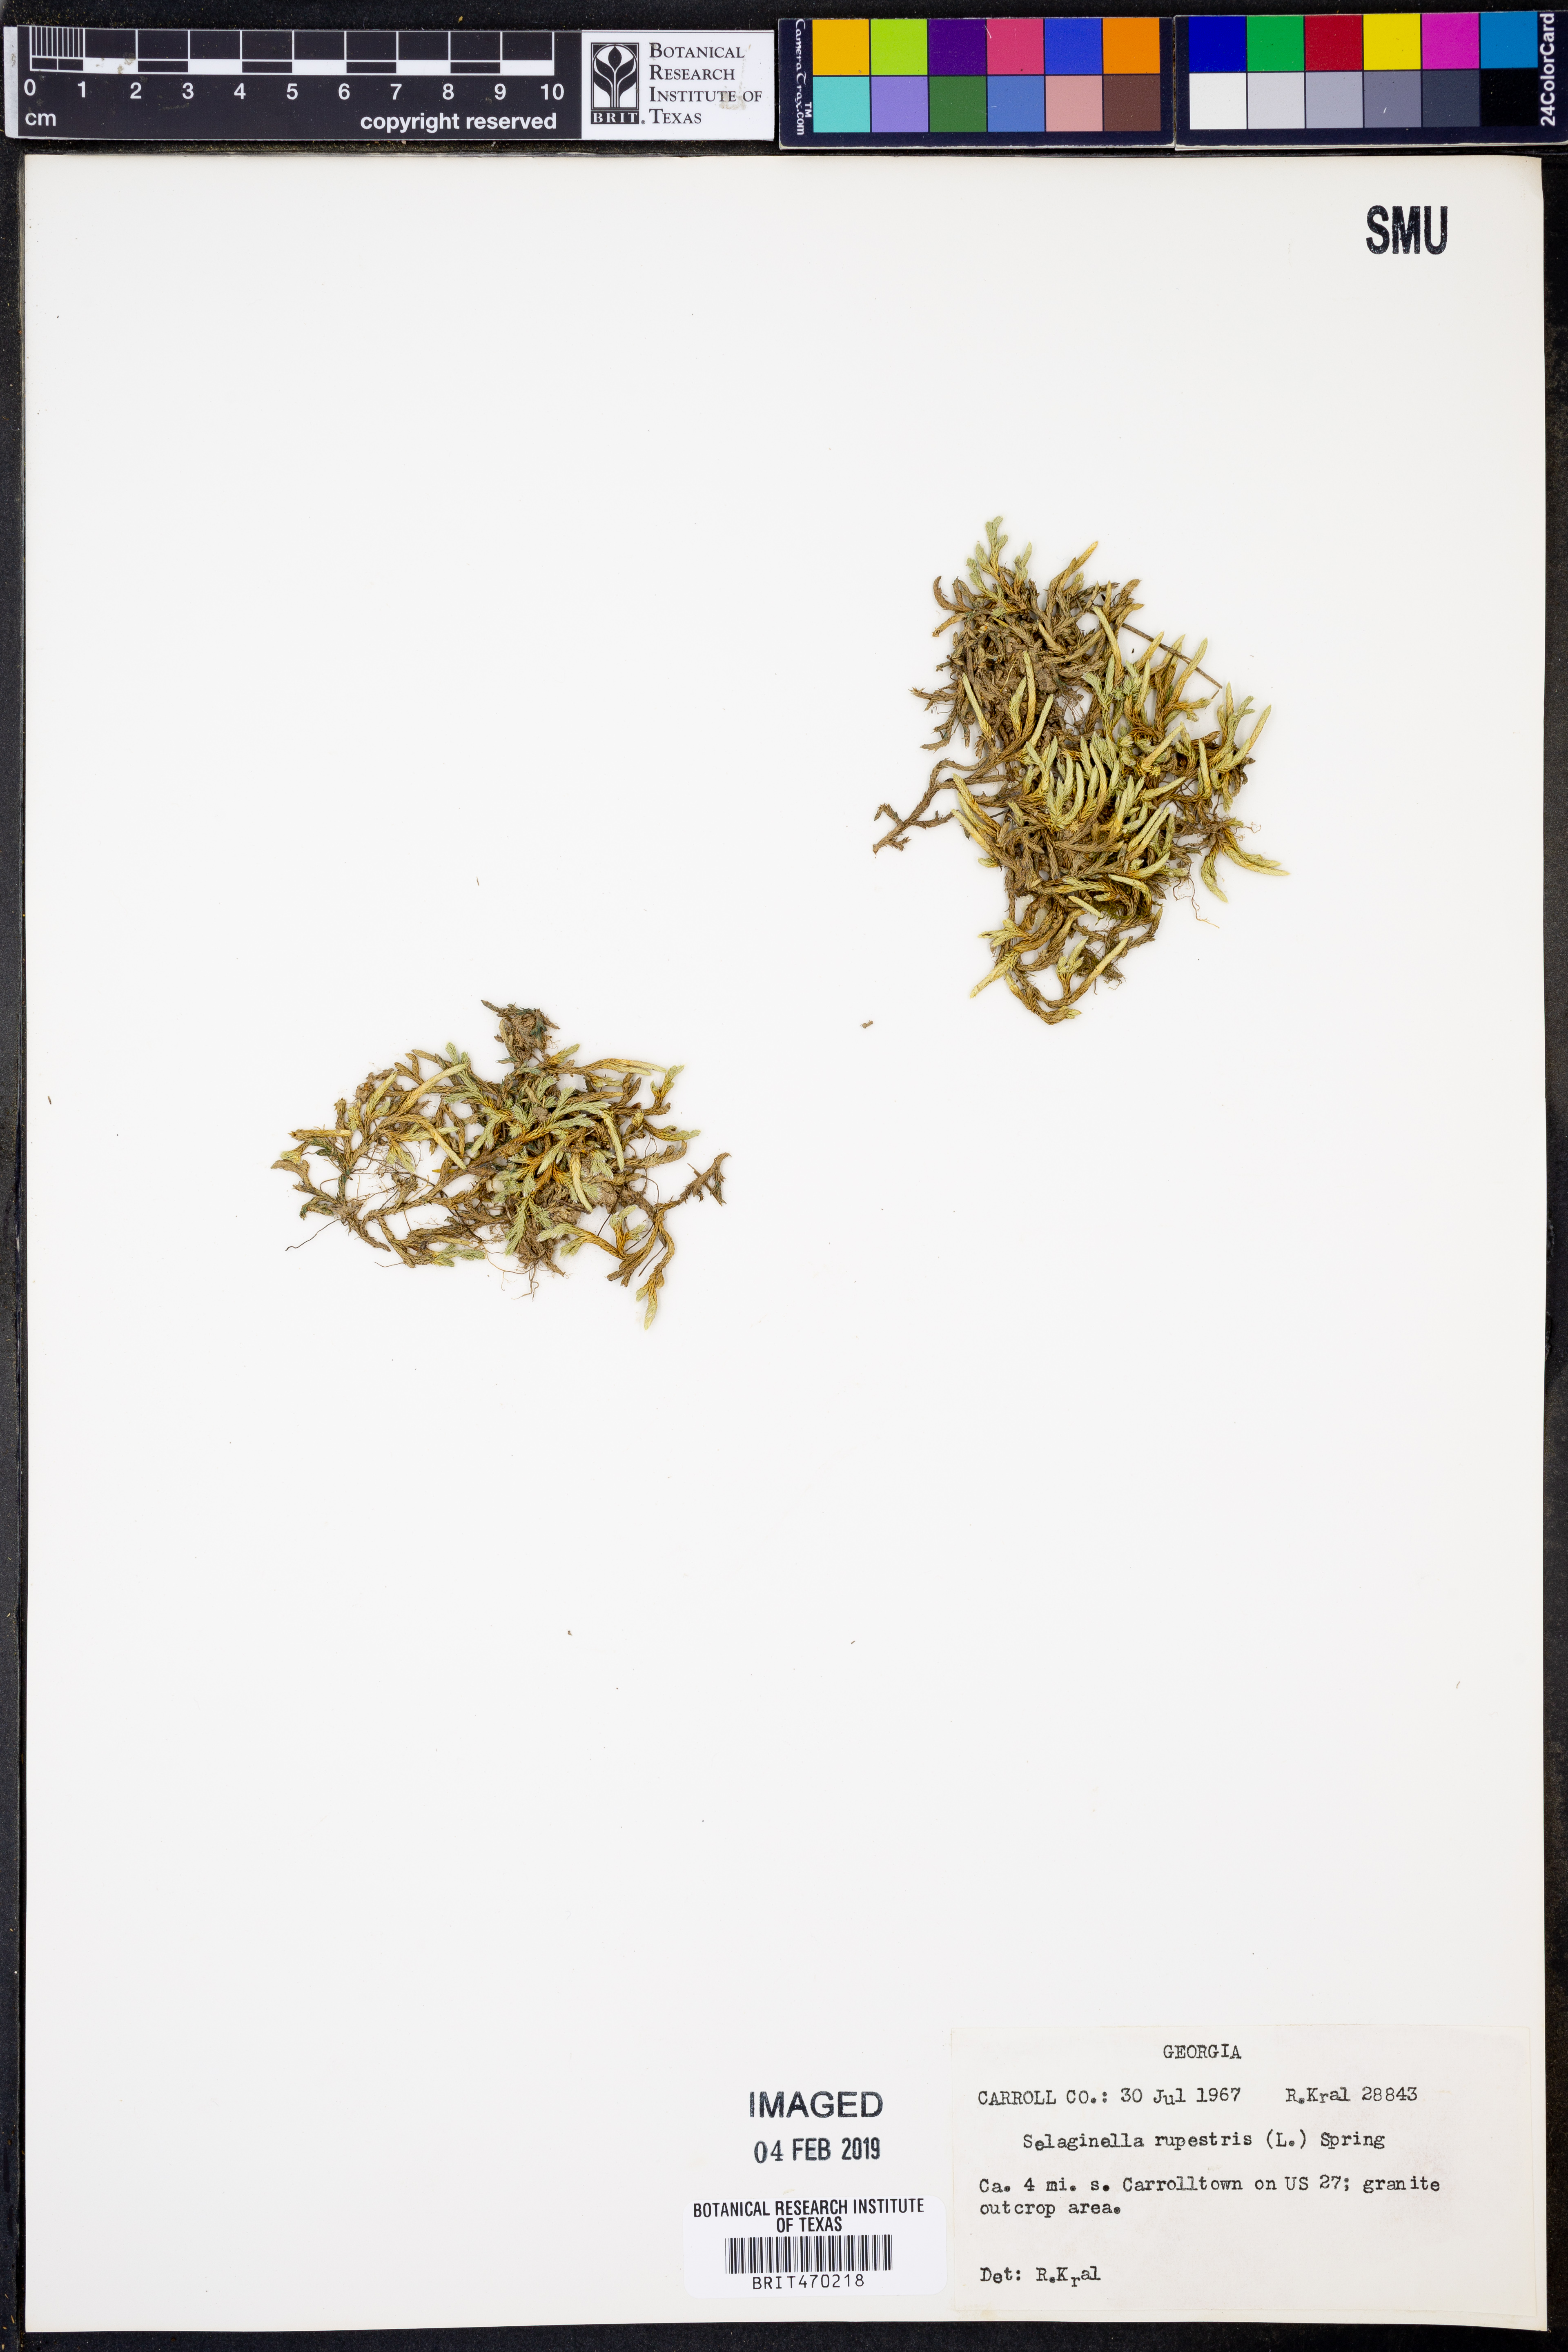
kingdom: Plantae
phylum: Tracheophyta
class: Lycopodiopsida
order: Selaginellales
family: Selaginellaceae
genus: Selaginella
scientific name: Selaginella rupestris
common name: Dwarf spikemoss
